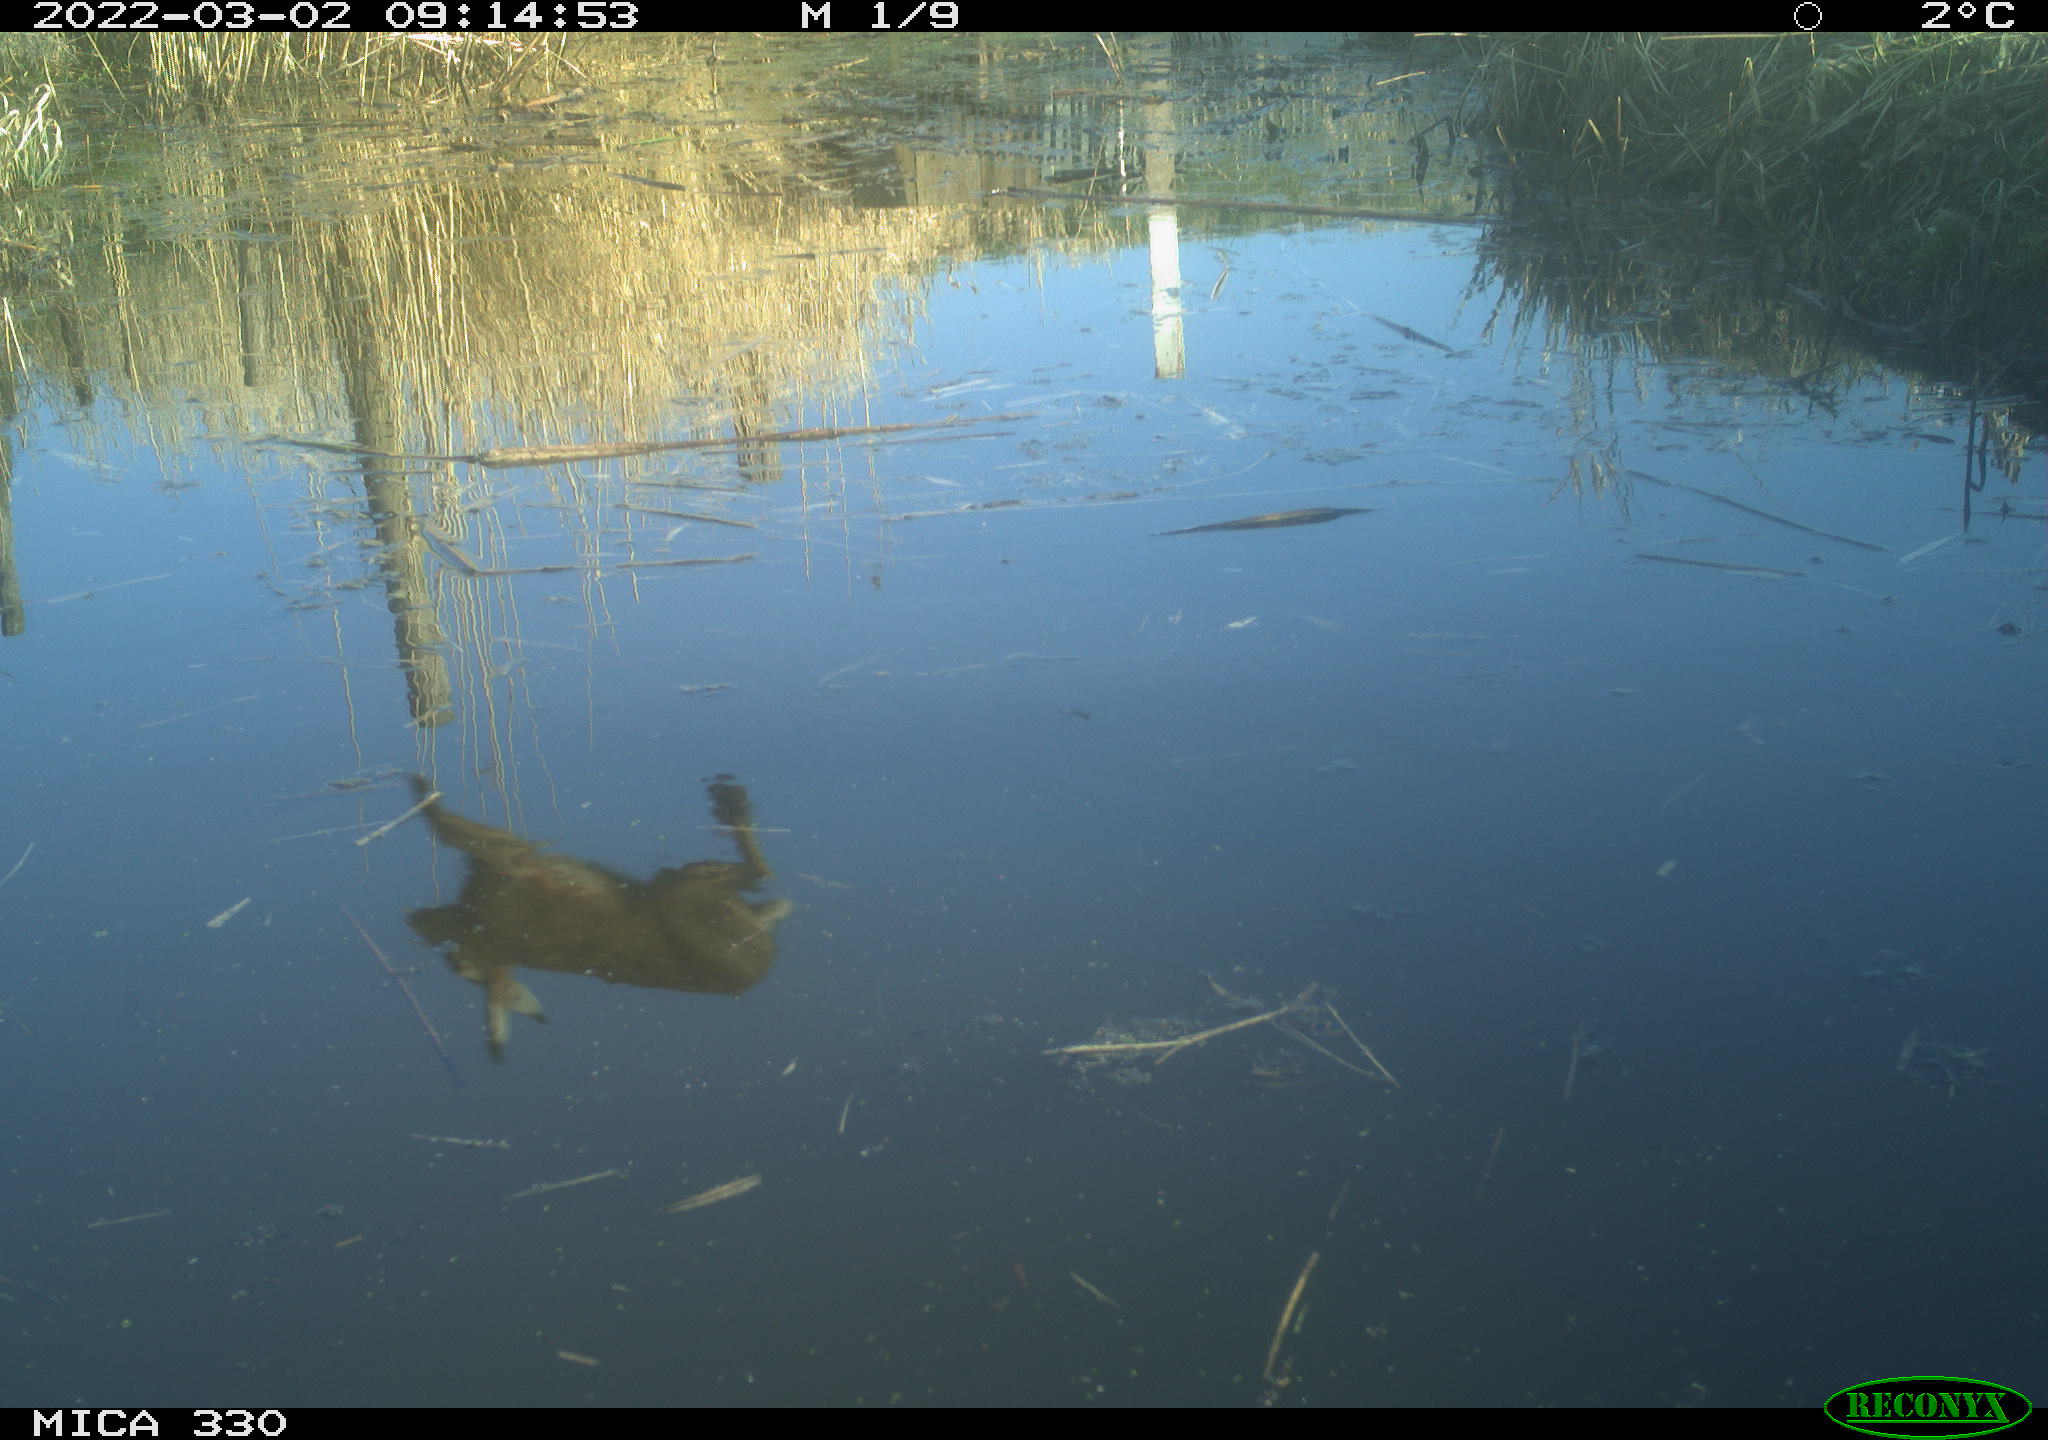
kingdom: Animalia
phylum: Chordata
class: Mammalia
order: Lagomorpha
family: Leporidae
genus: Lepus
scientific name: Lepus europaeus
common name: European hare
